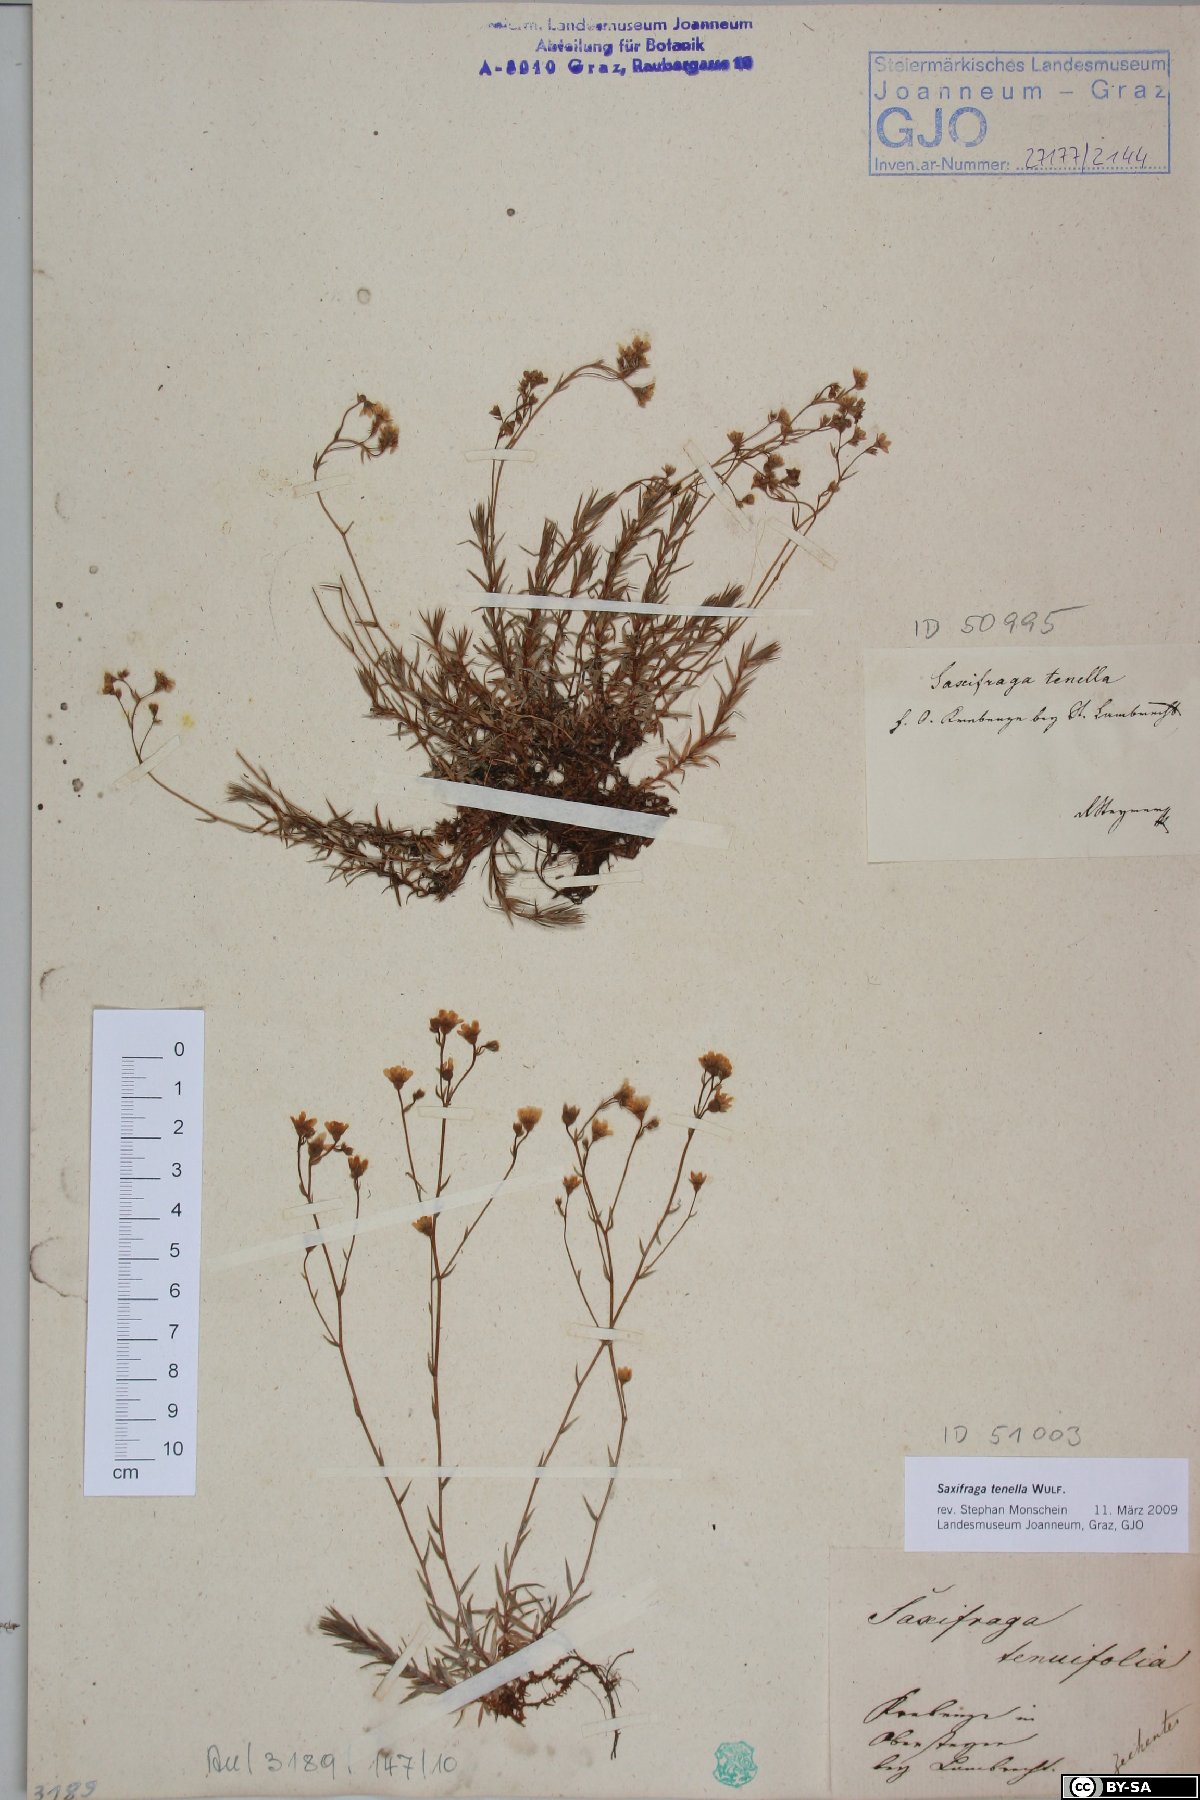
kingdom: Plantae
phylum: Tracheophyta
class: Magnoliopsida
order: Saxifragales
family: Saxifragaceae
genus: Saxifraga
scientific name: Saxifraga tenella
